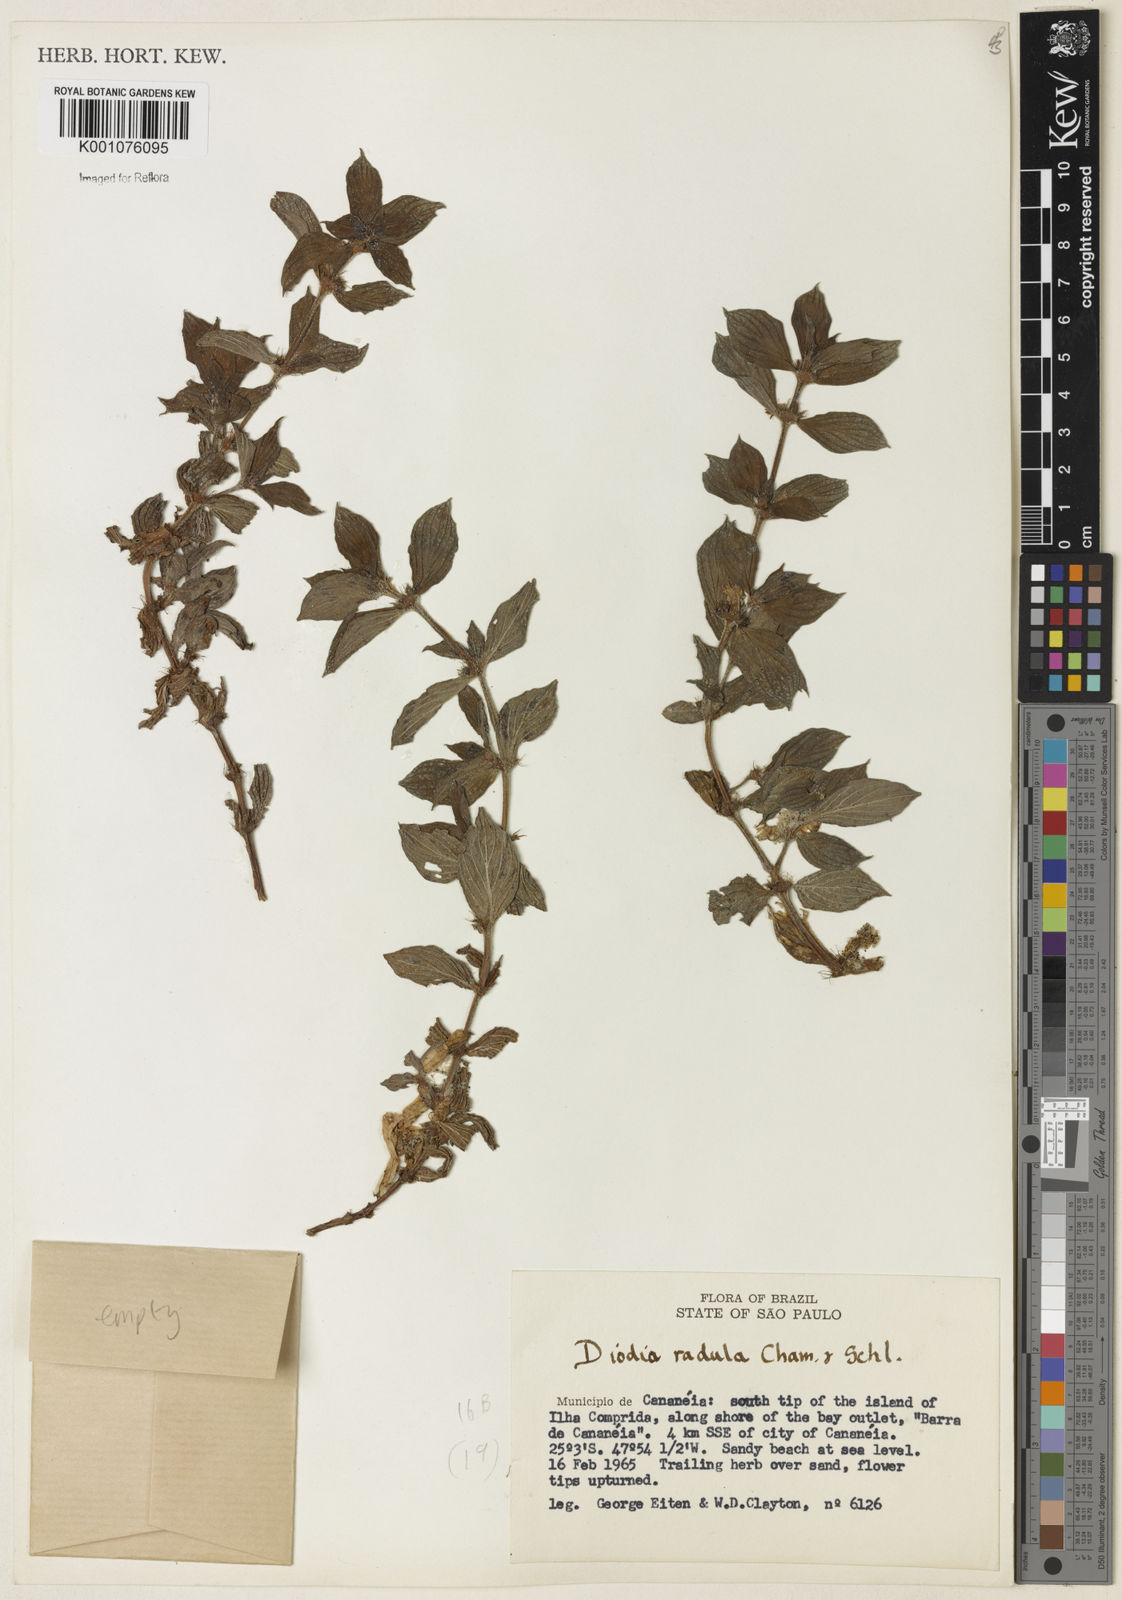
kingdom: Plantae
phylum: Tracheophyta
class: Magnoliopsida
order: Gentianales
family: Rubiaceae
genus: Hexasepalum
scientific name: Hexasepalum radulum
